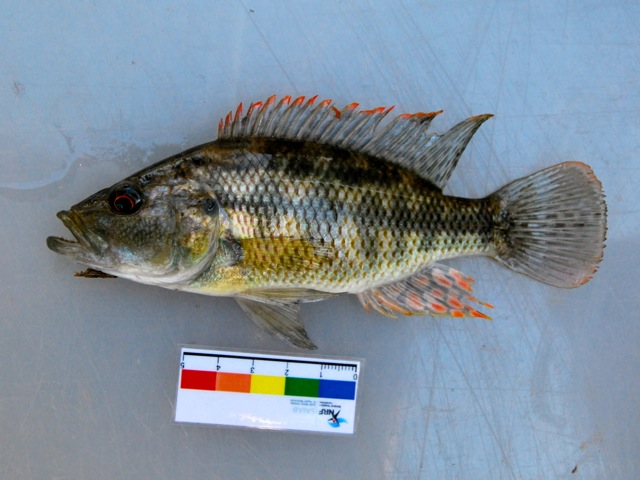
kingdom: Animalia
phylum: Chordata
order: Perciformes
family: Cichlidae
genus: Serranochromis
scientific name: Serranochromis macrocephalus
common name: Purpleface largemouth
